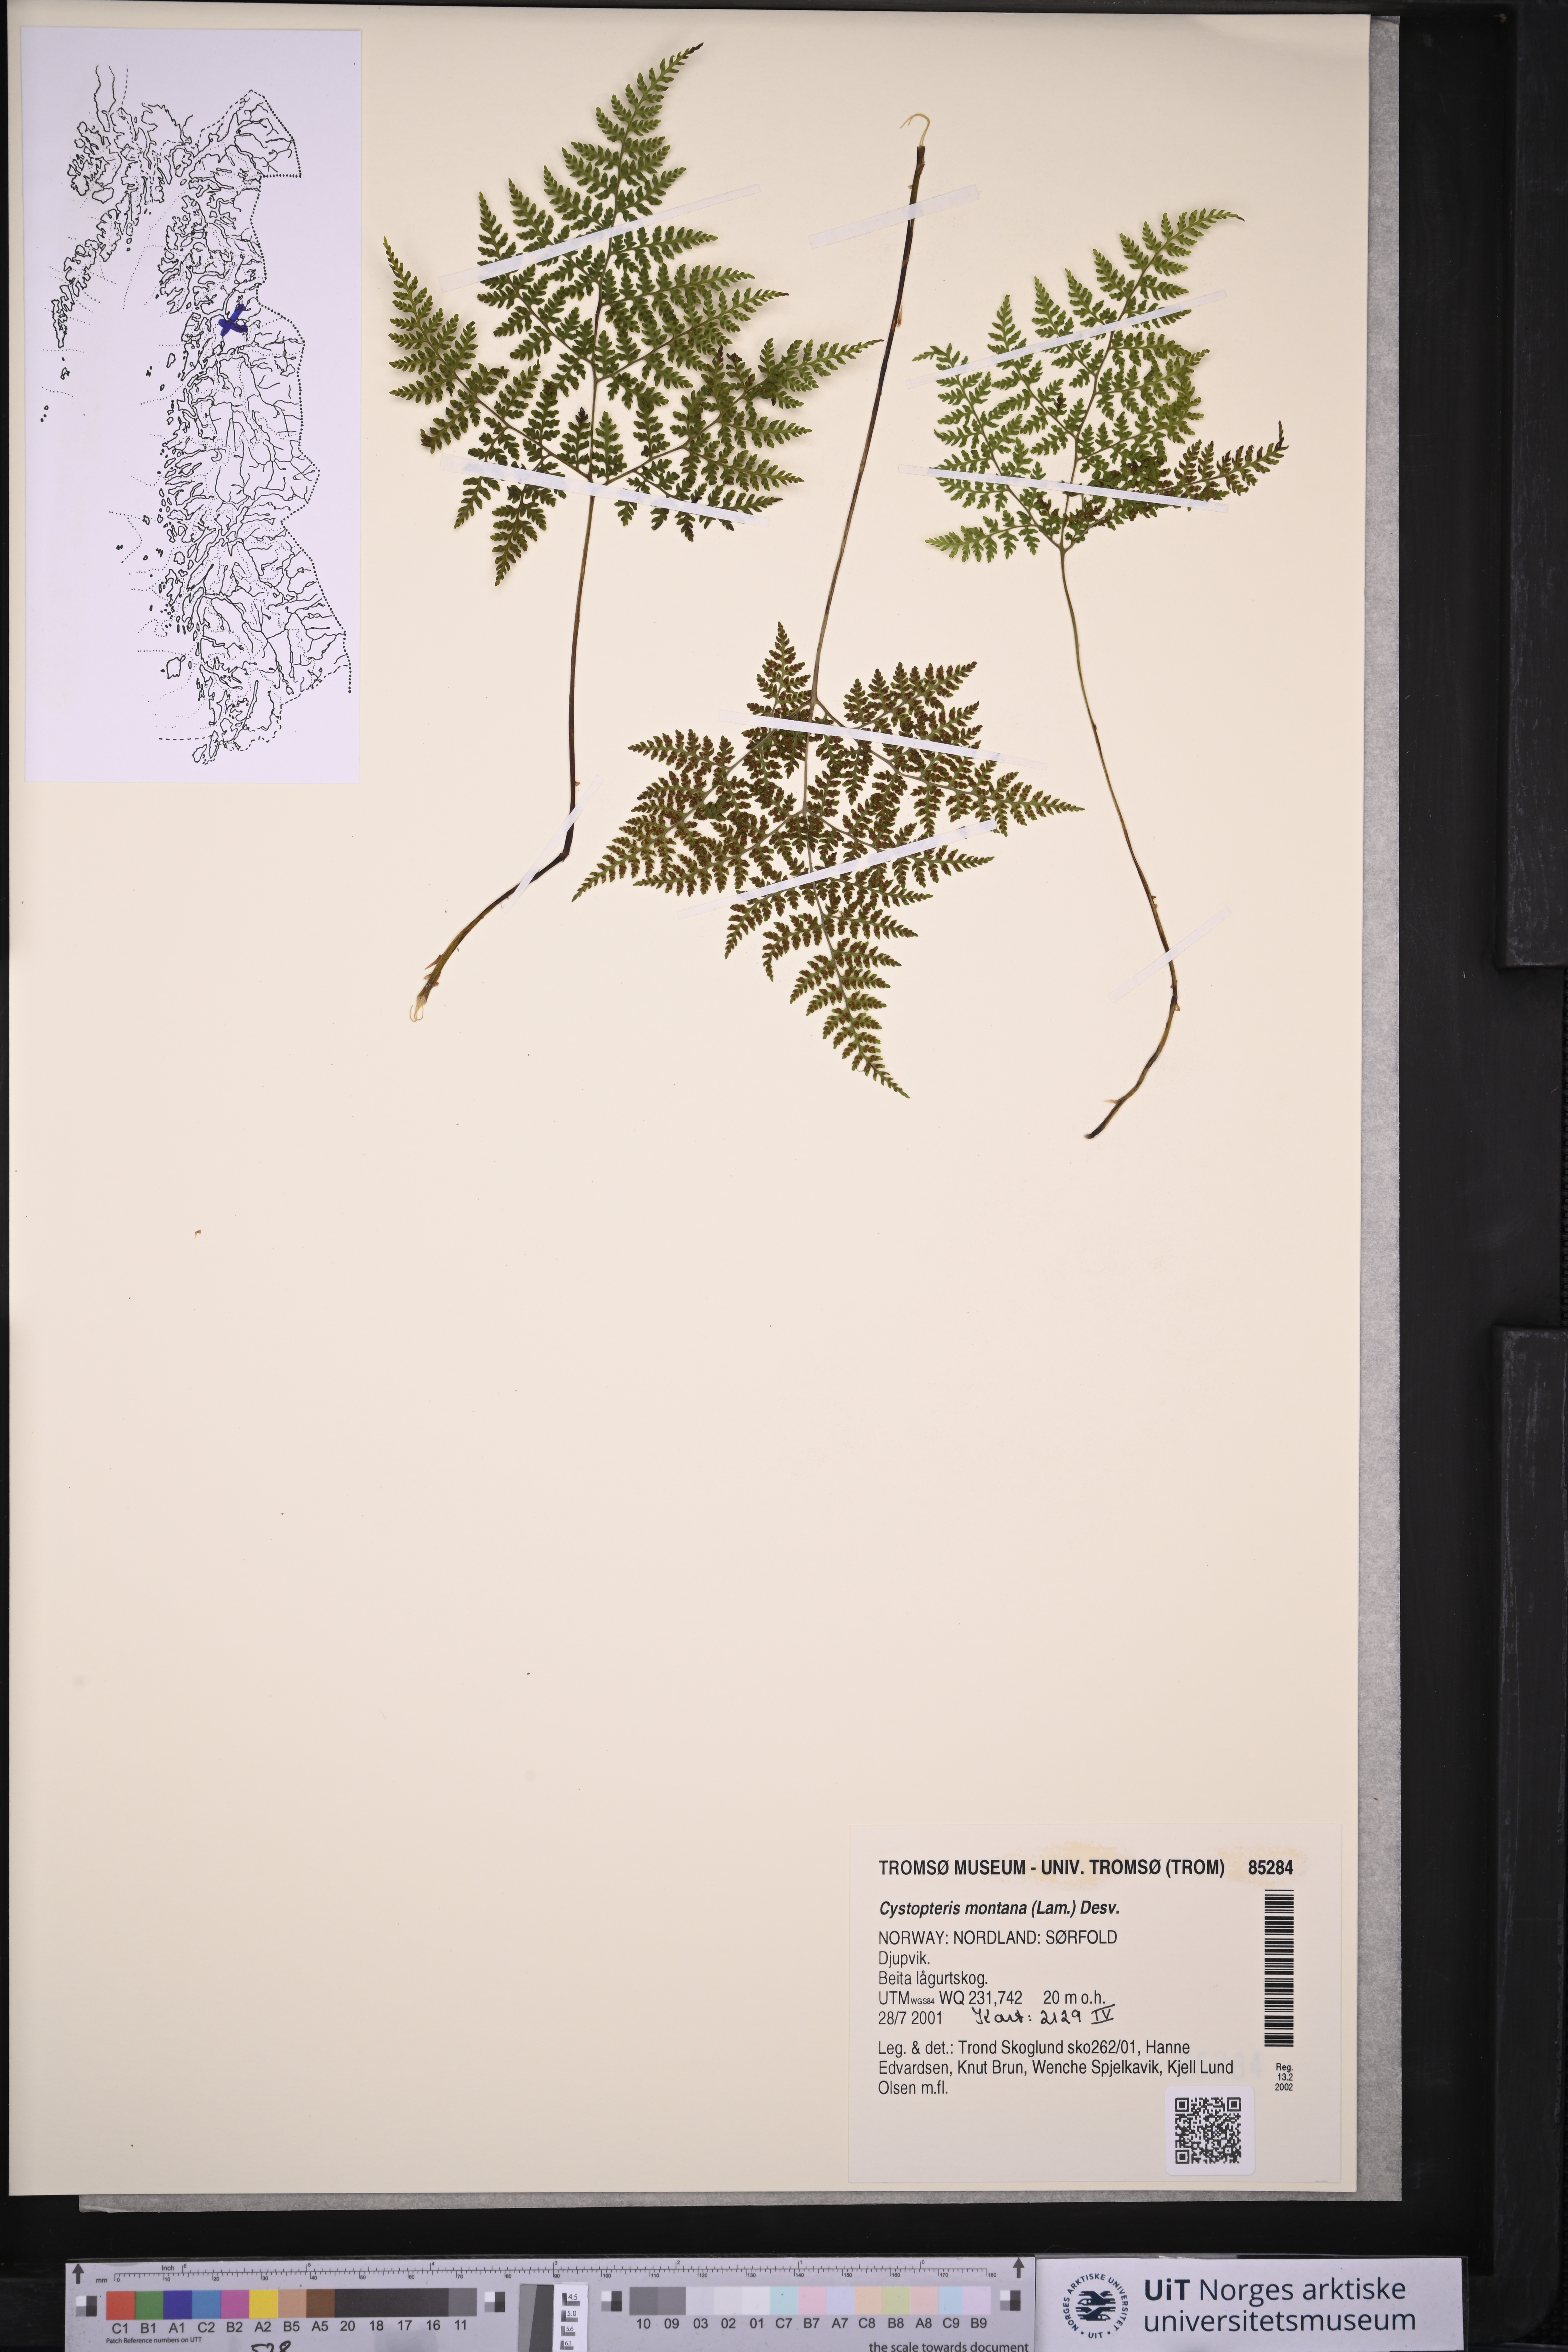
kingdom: Plantae
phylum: Tracheophyta
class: Polypodiopsida
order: Polypodiales
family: Cystopteridaceae
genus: Cystopteris
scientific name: Cystopteris montana
